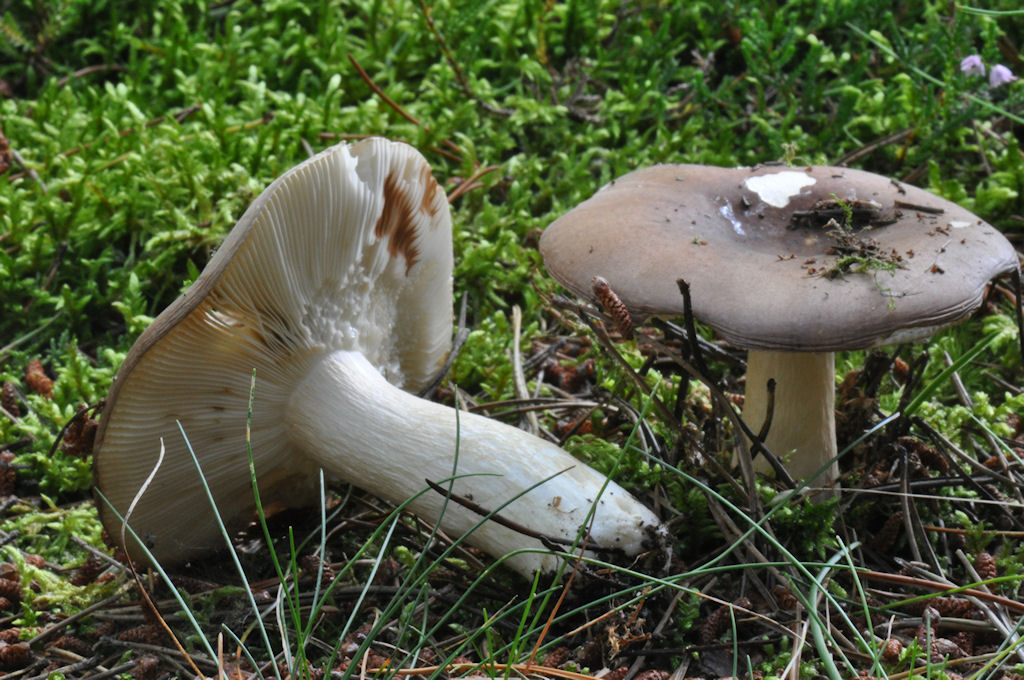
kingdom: Fungi
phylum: Basidiomycota
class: Agaricomycetes
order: Russulales
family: Russulaceae
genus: Russula
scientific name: Russula clavipes
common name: olivengrøn skørhat
